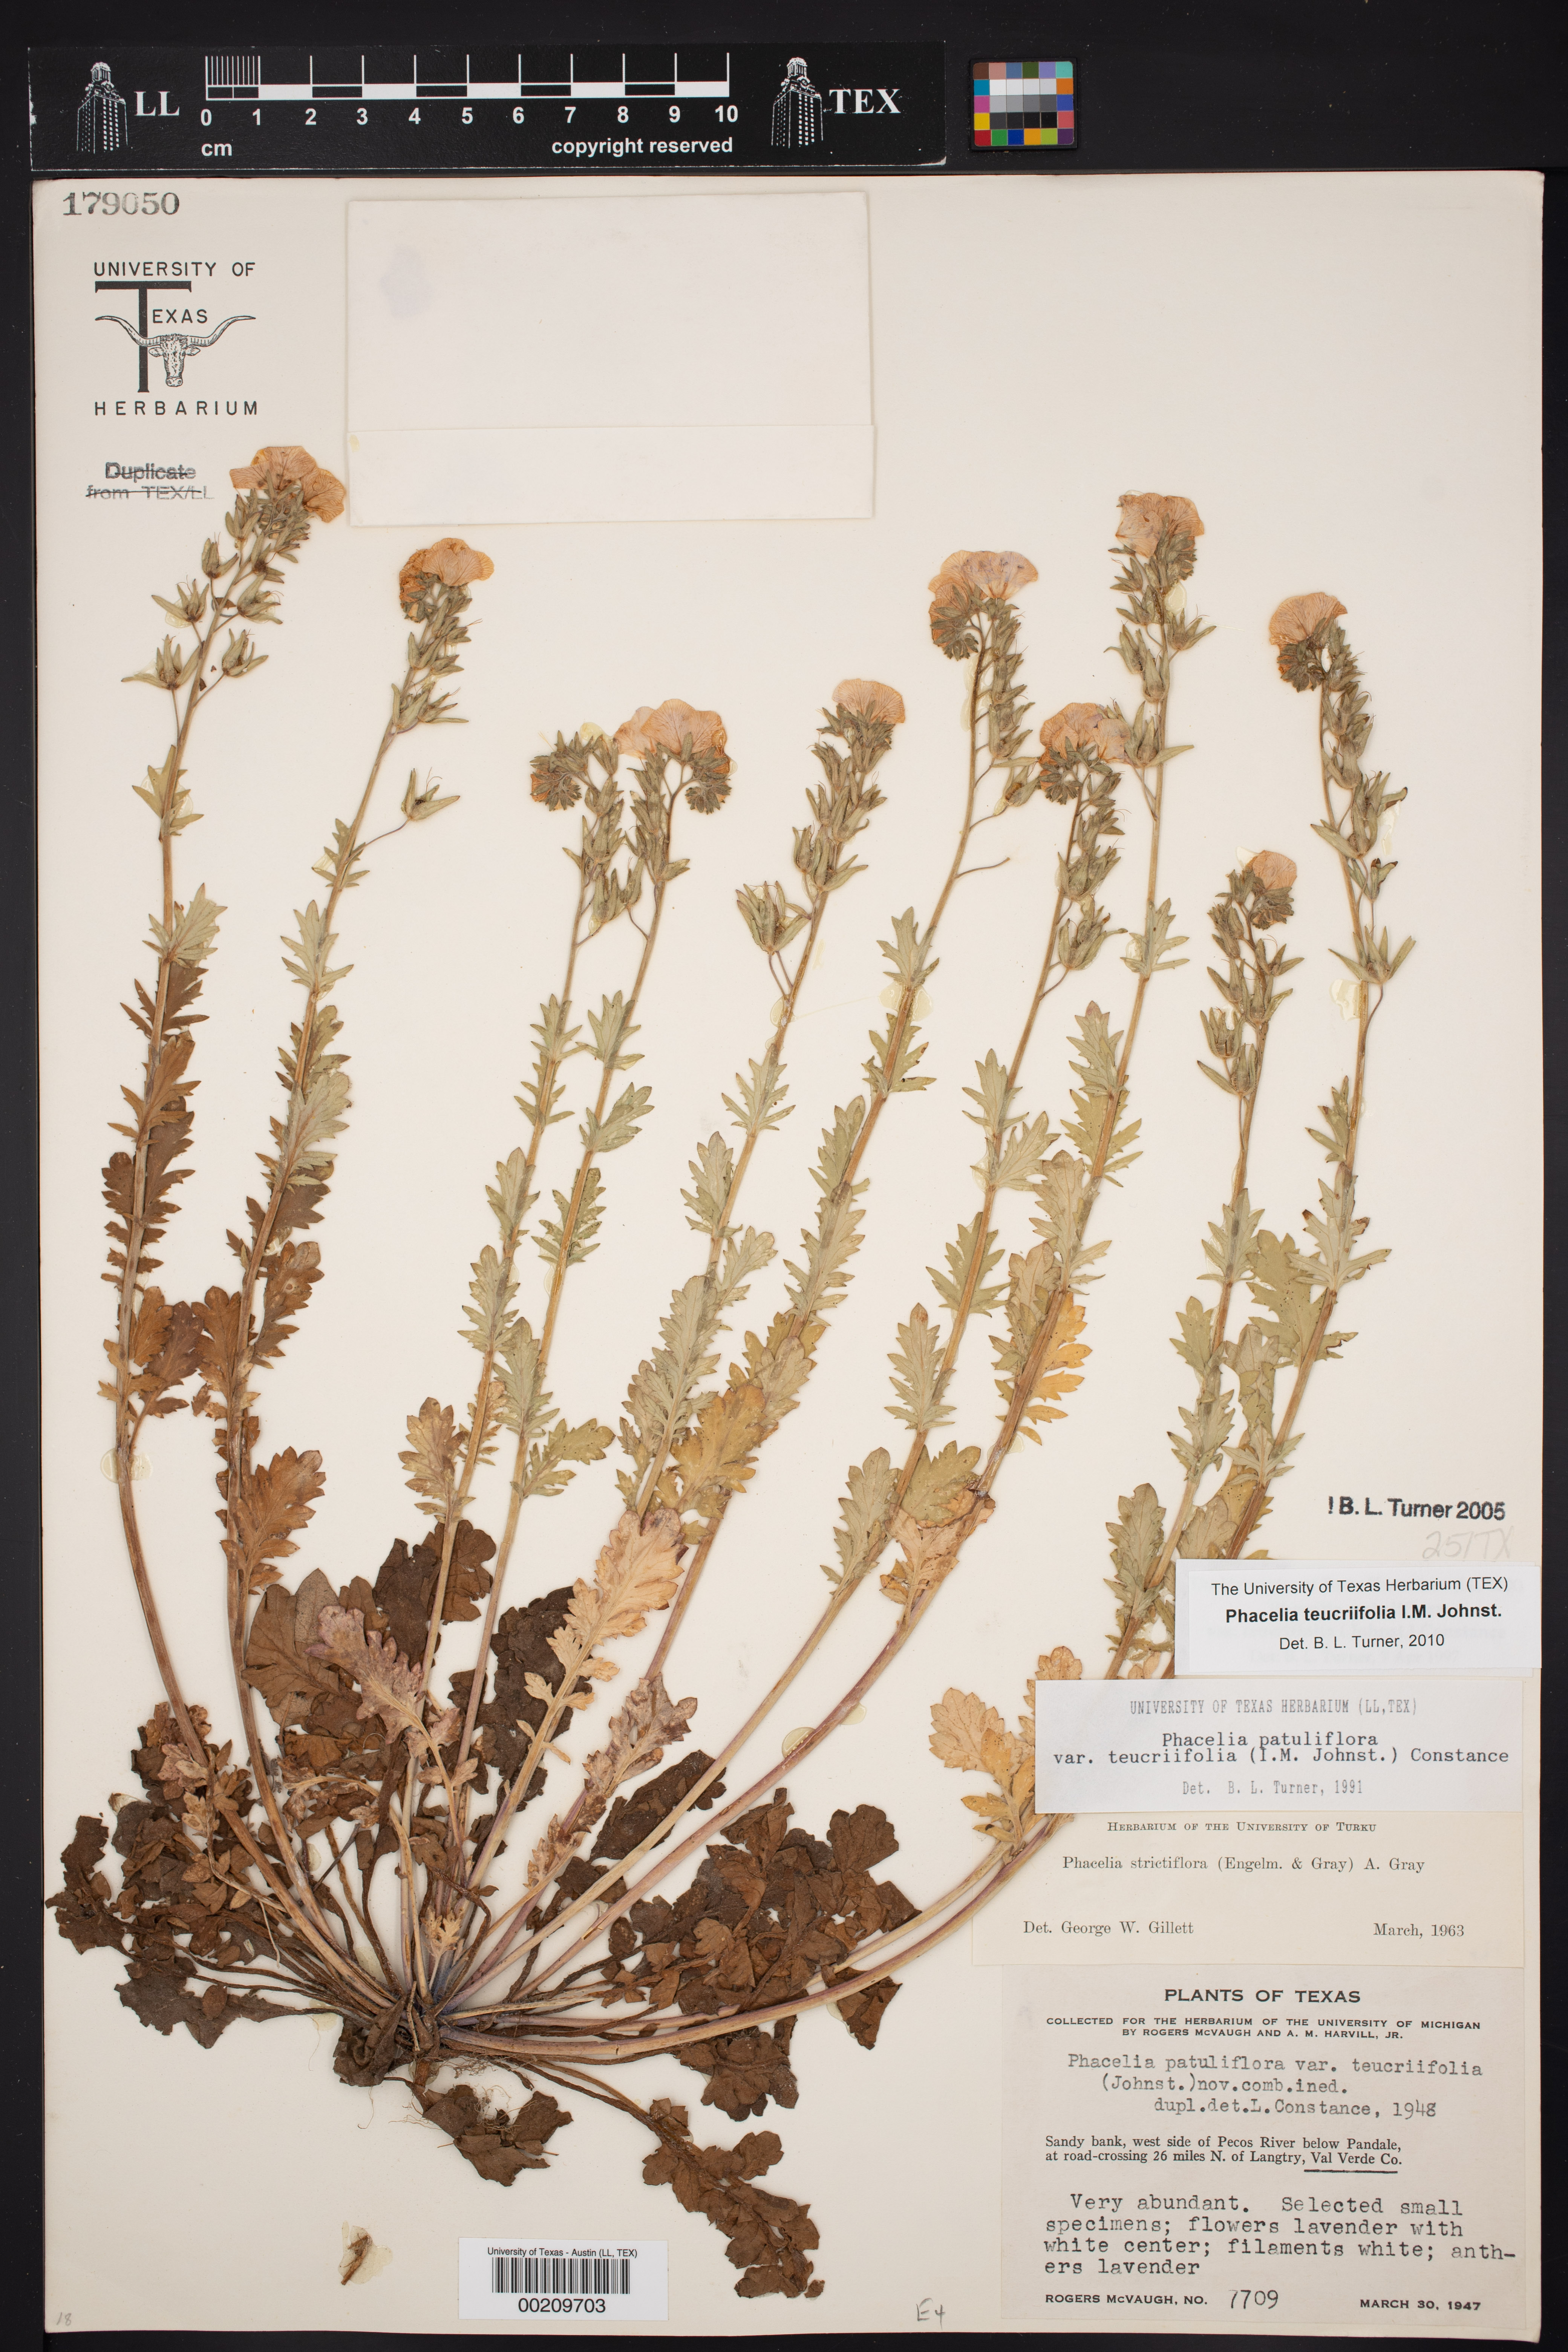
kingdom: Plantae
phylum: Tracheophyta
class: Magnoliopsida
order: Boraginales
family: Hydrophyllaceae
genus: Phacelia
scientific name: Phacelia patuliflora
